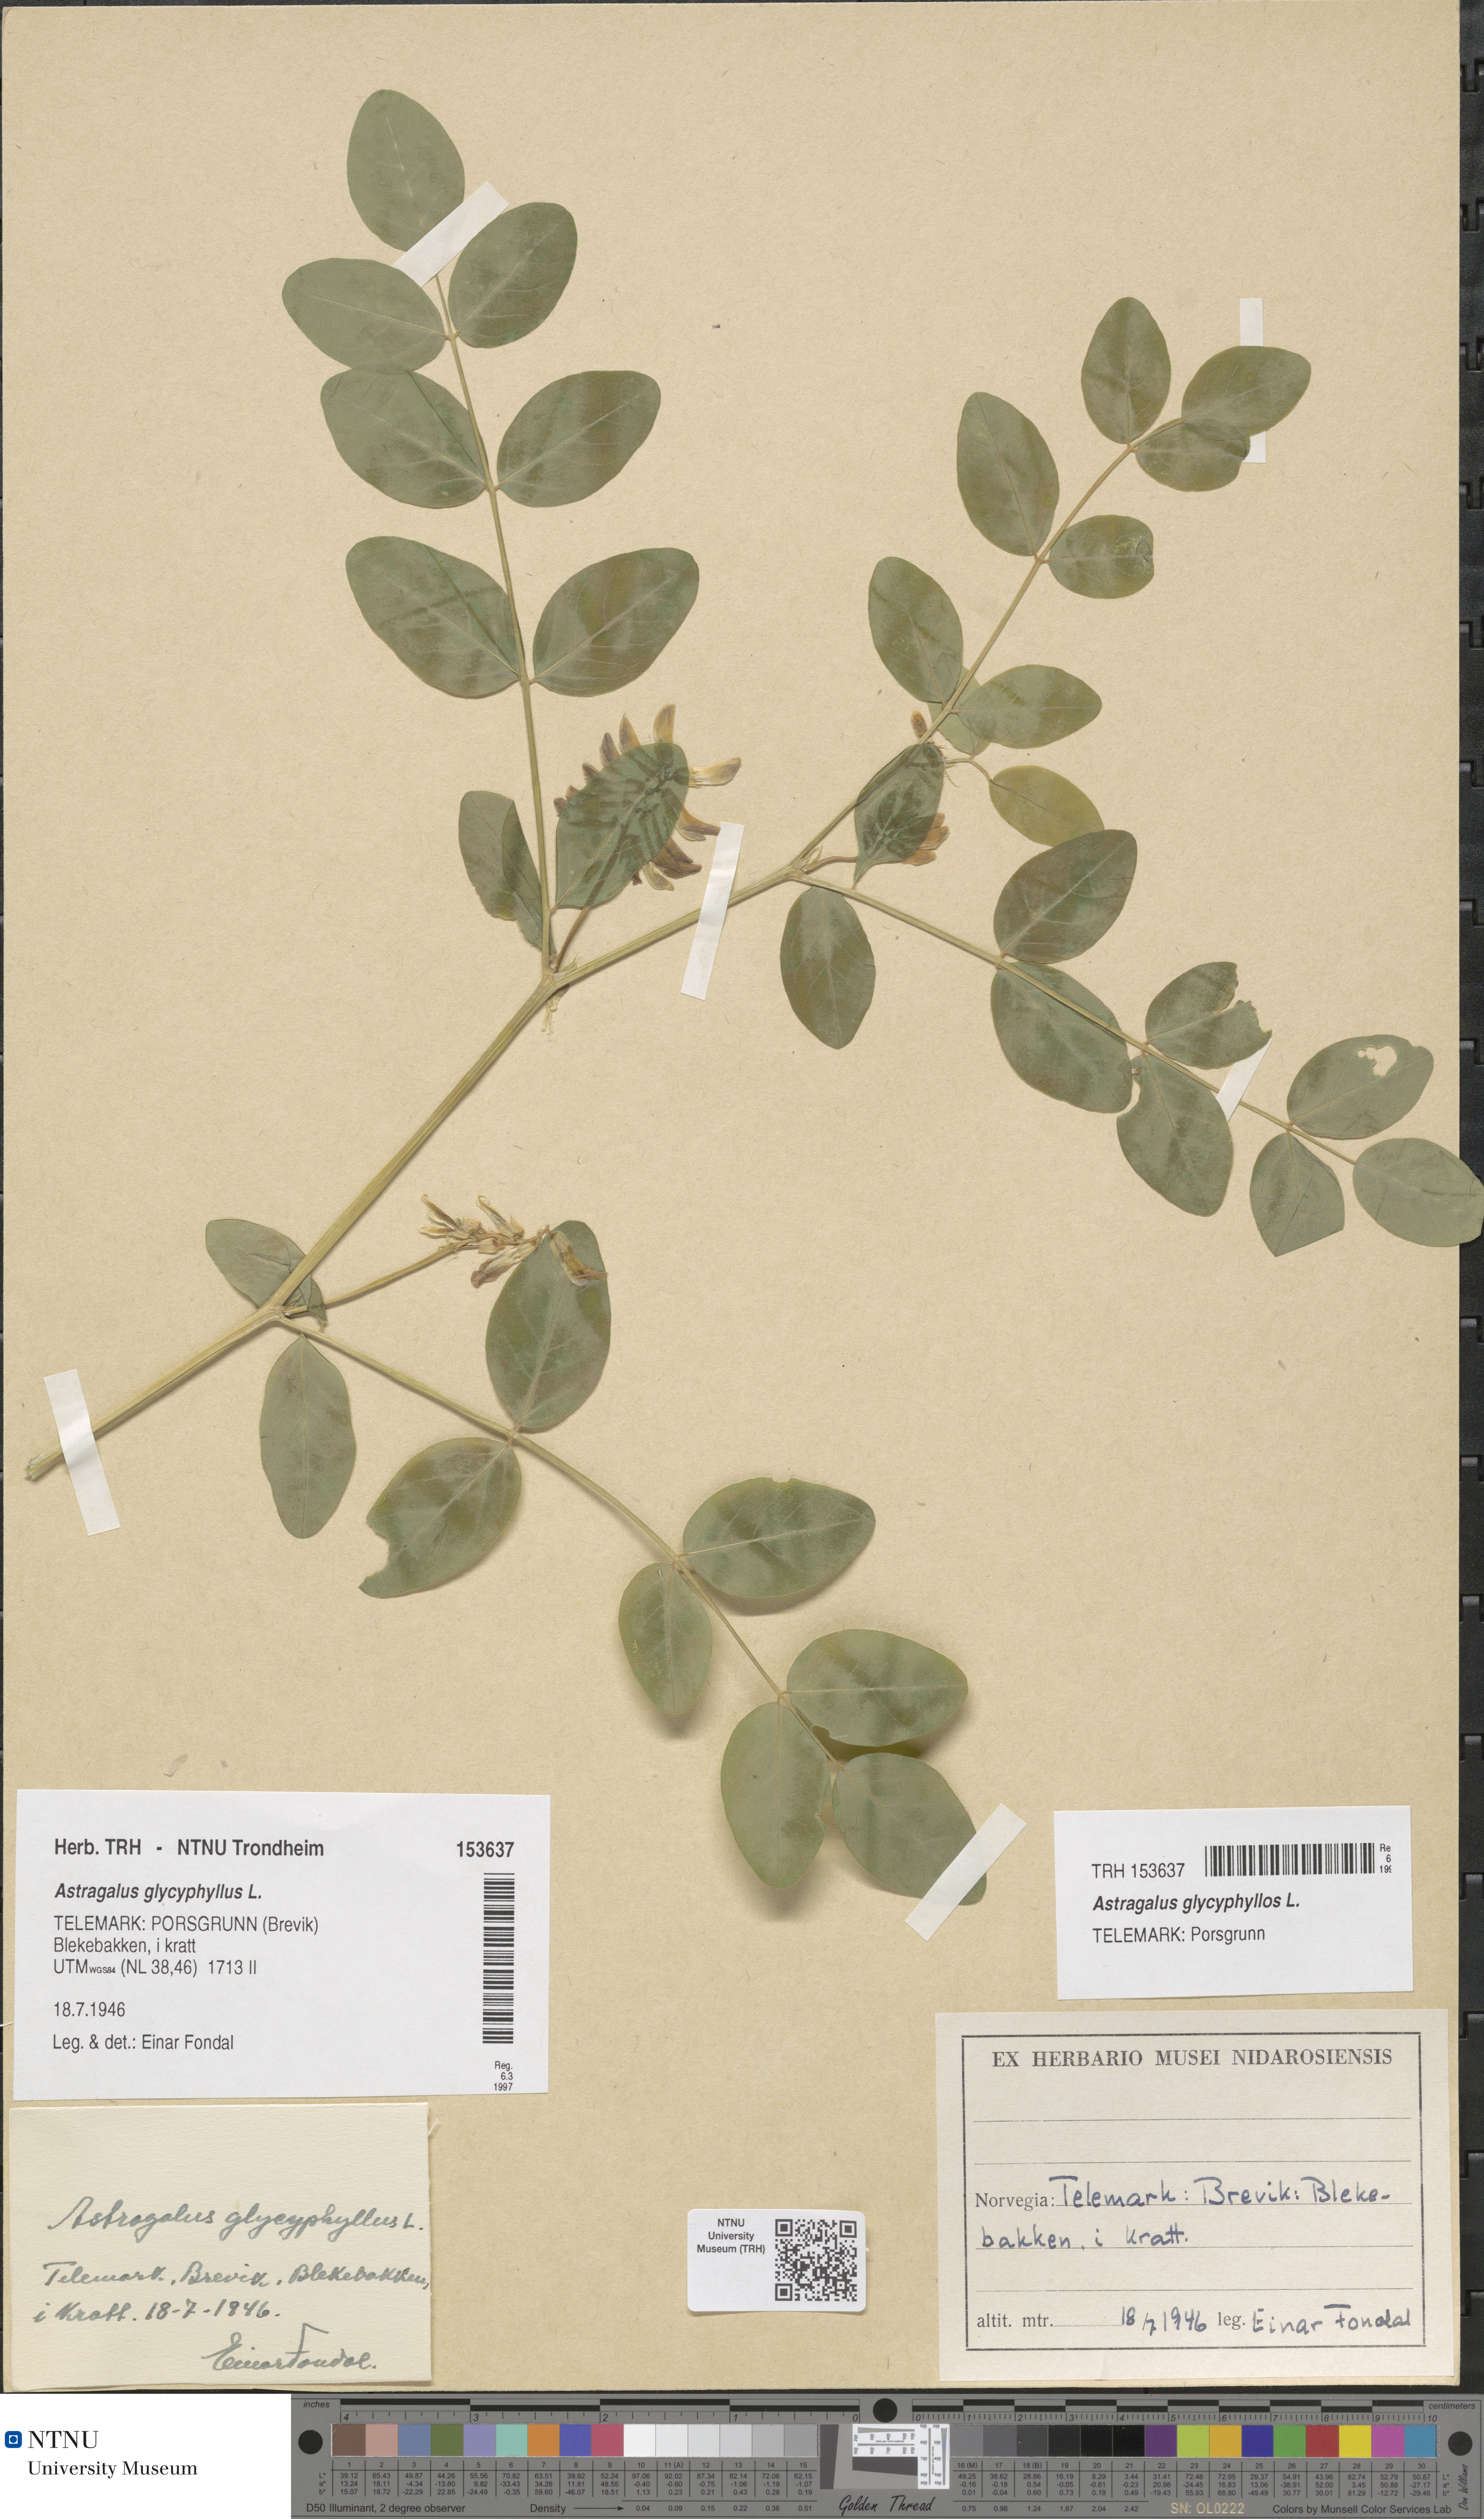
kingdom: Plantae
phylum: Tracheophyta
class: Magnoliopsida
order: Fabales
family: Fabaceae
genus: Astragalus
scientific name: Astragalus glycyphyllos
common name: Wild liquorice
